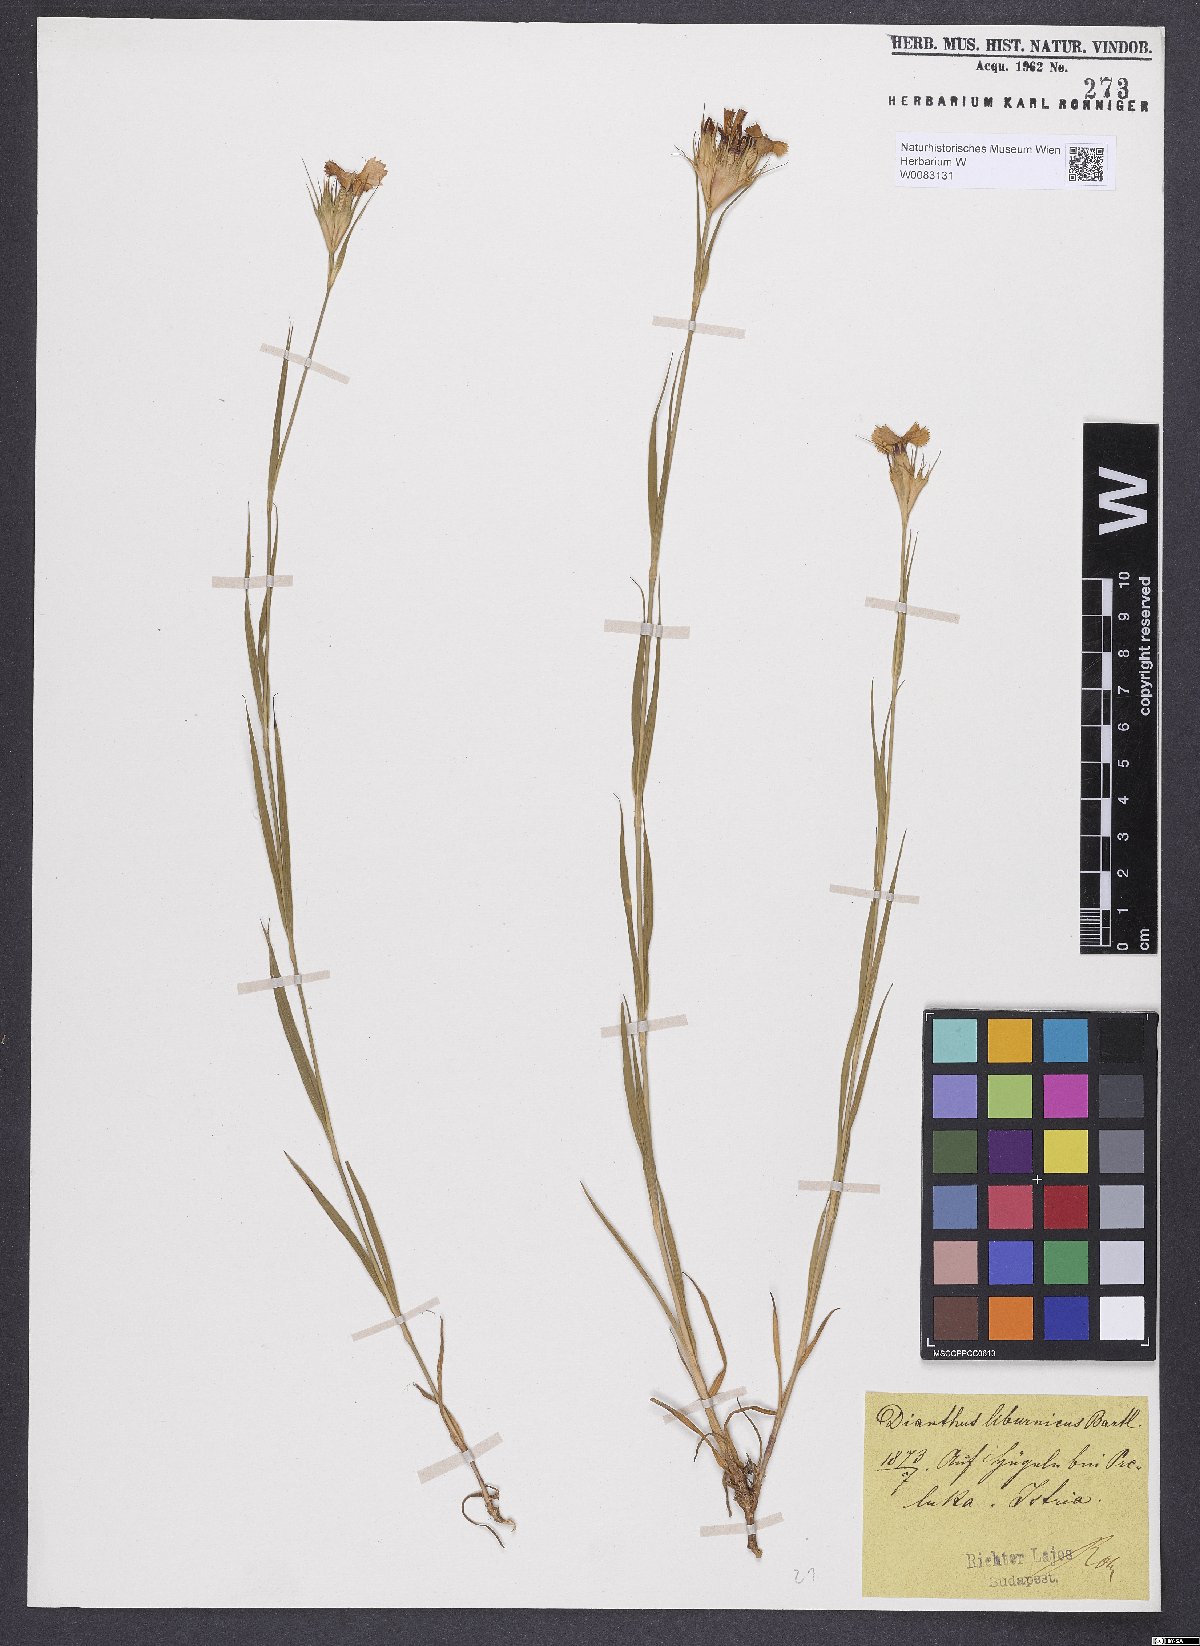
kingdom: Plantae
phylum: Tracheophyta
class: Magnoliopsida
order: Caryophyllales
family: Caryophyllaceae
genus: Dianthus
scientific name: Dianthus balbisii
